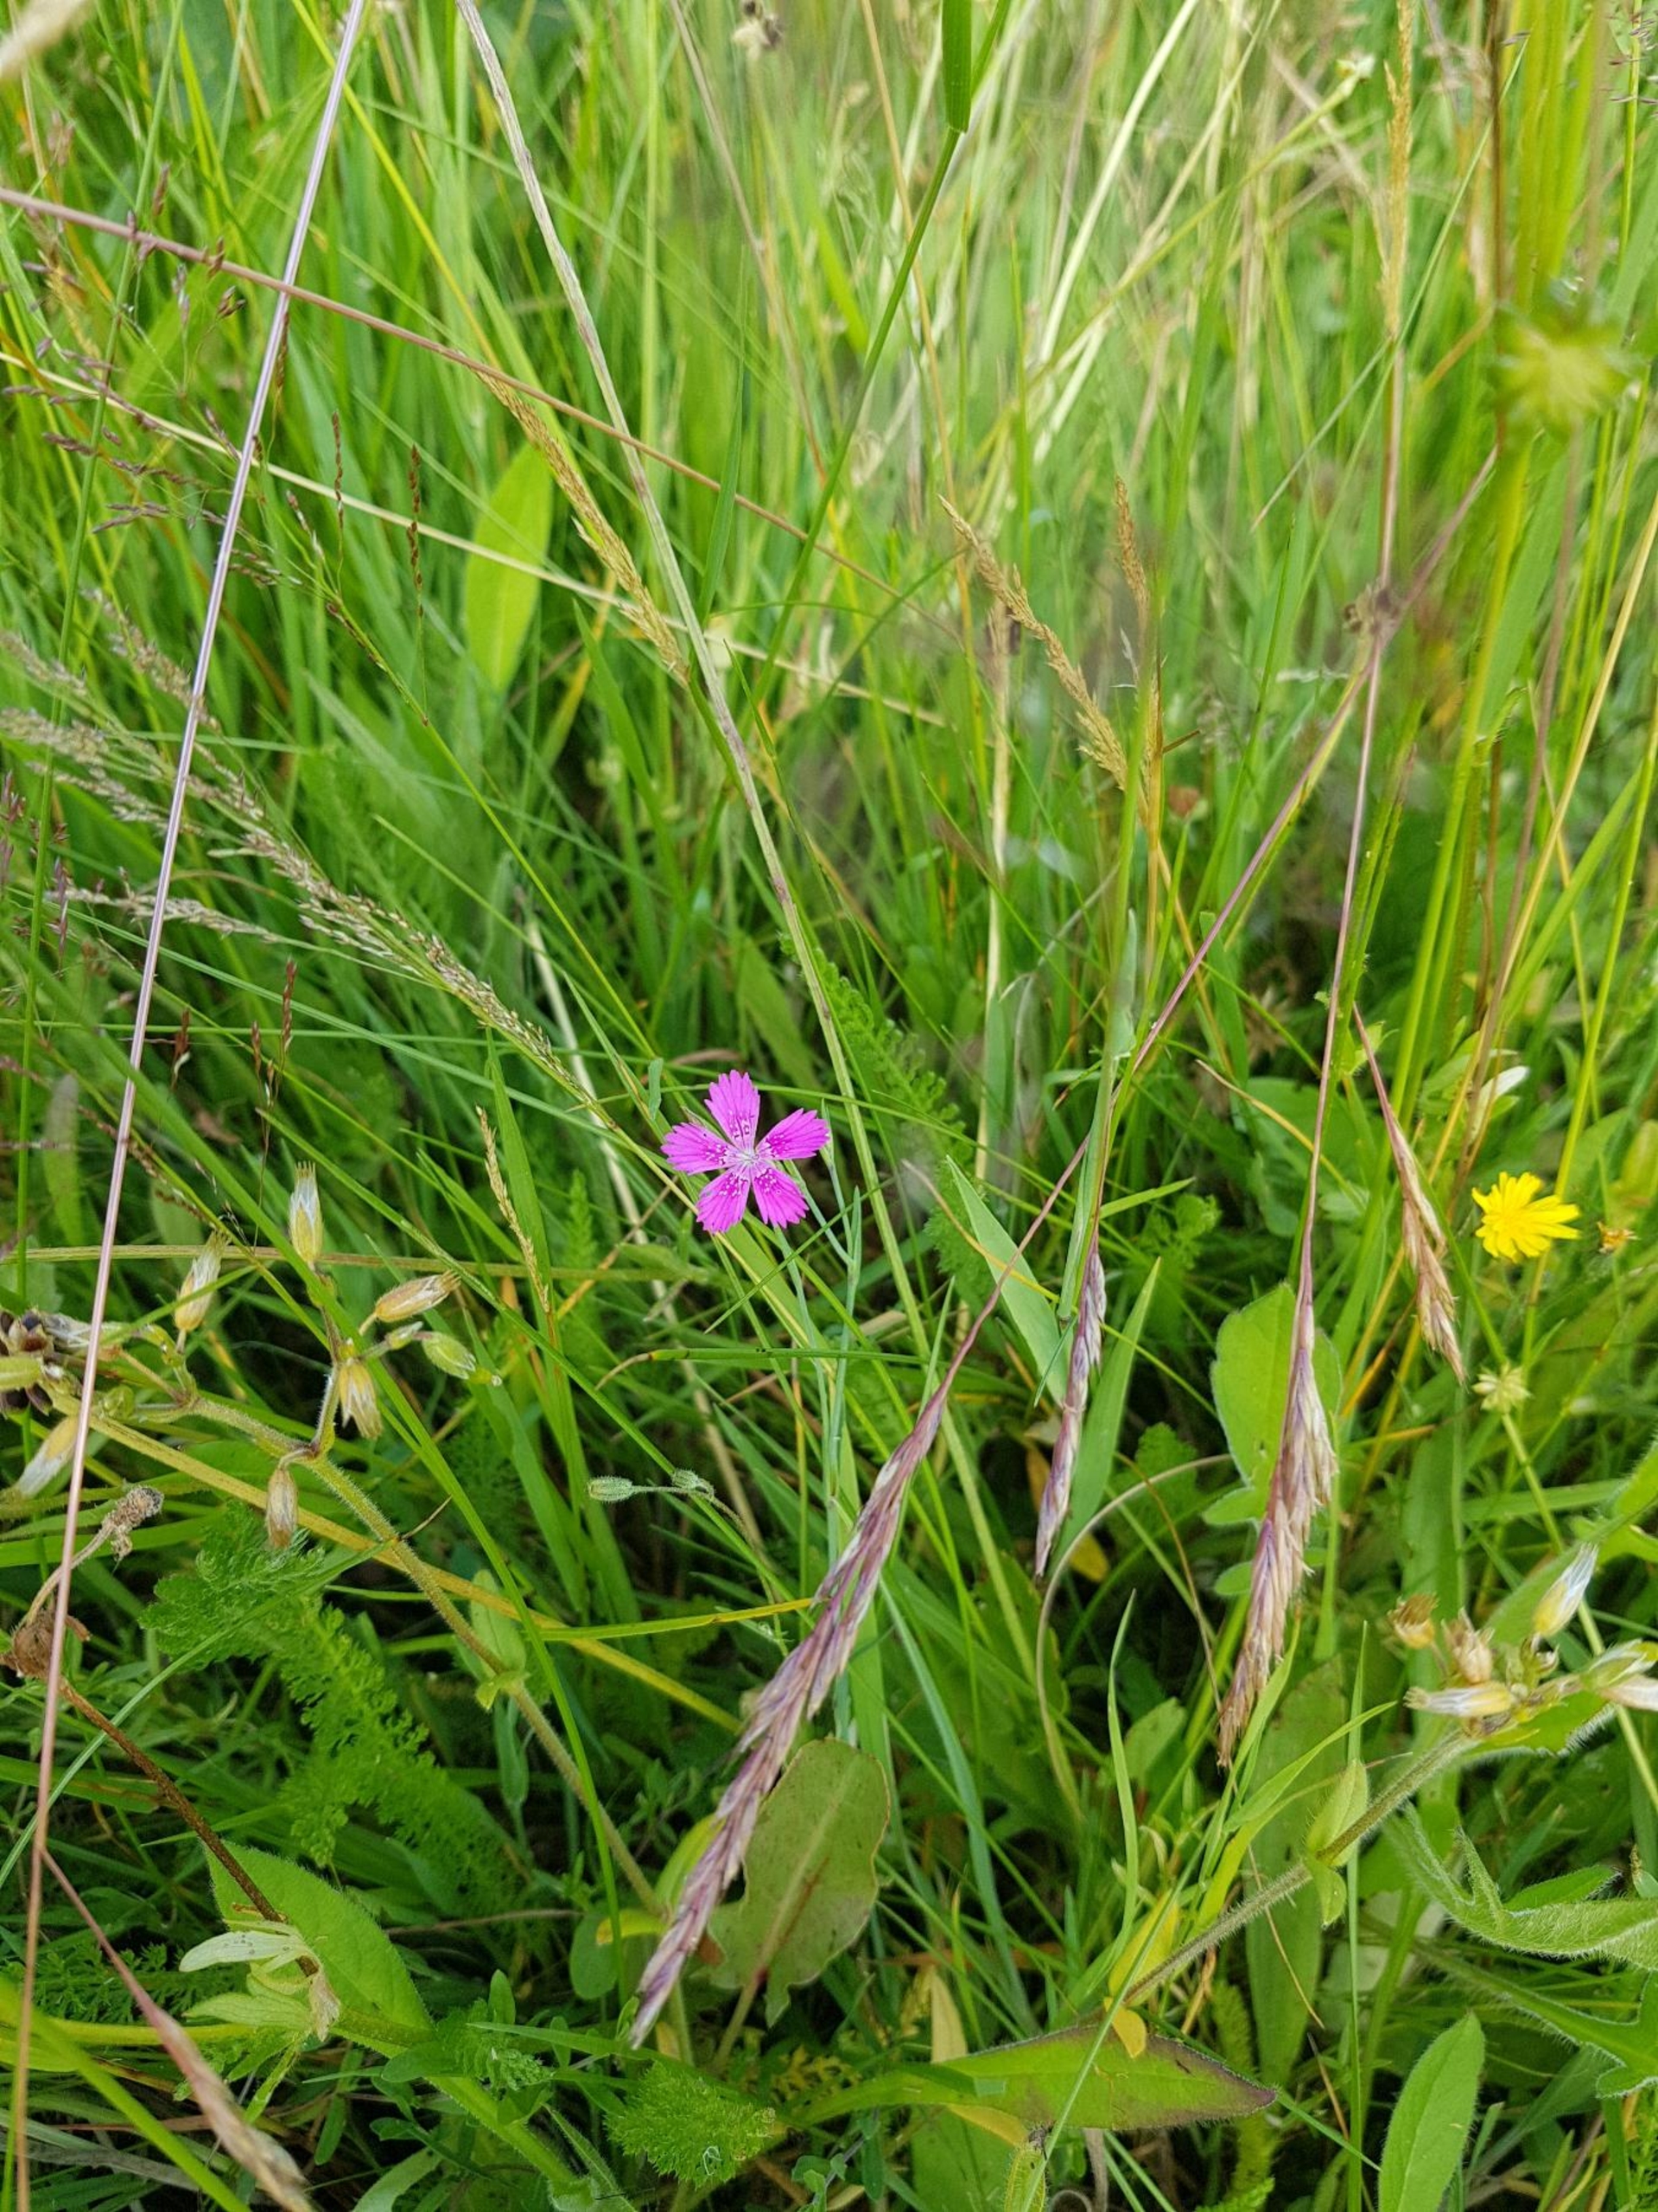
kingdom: Plantae
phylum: Tracheophyta
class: Magnoliopsida
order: Caryophyllales
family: Caryophyllaceae
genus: Dianthus
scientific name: Dianthus deltoides
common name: Bakke-nellike
